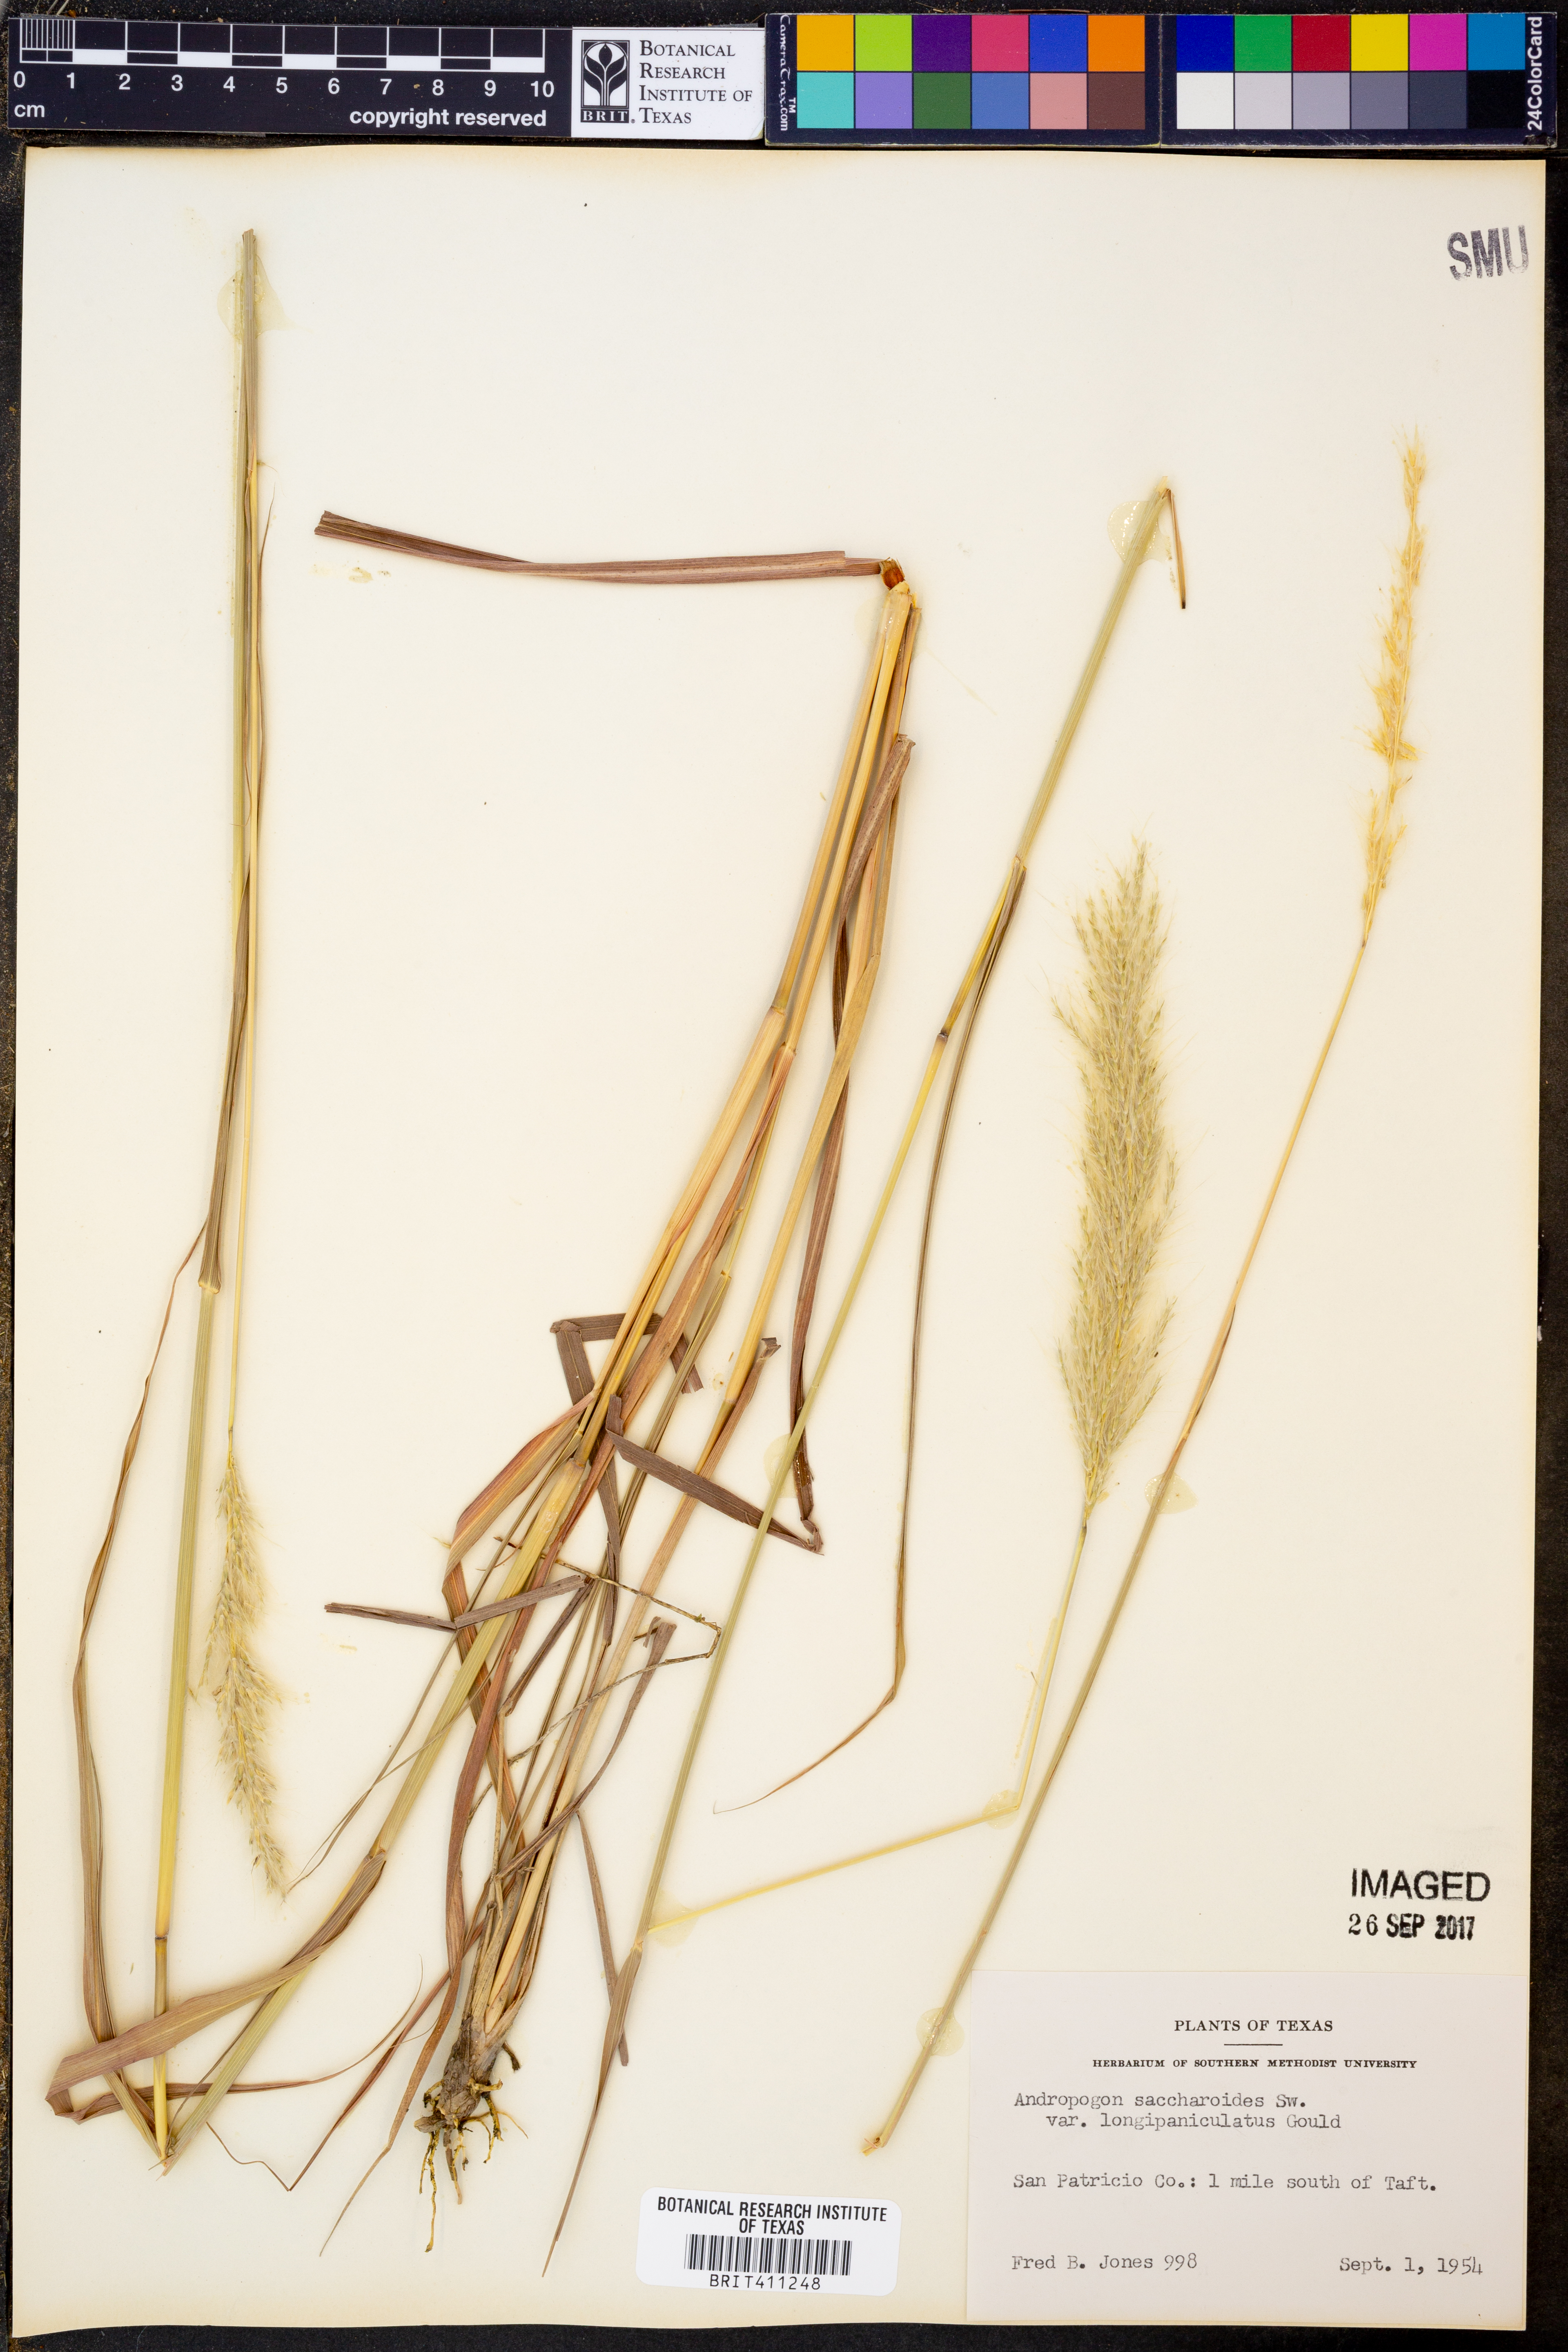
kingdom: Plantae
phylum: Tracheophyta
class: Liliopsida
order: Poales
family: Poaceae
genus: Bothriochloa
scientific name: Bothriochloa longipaniculata
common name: Longspike silver bluestem
